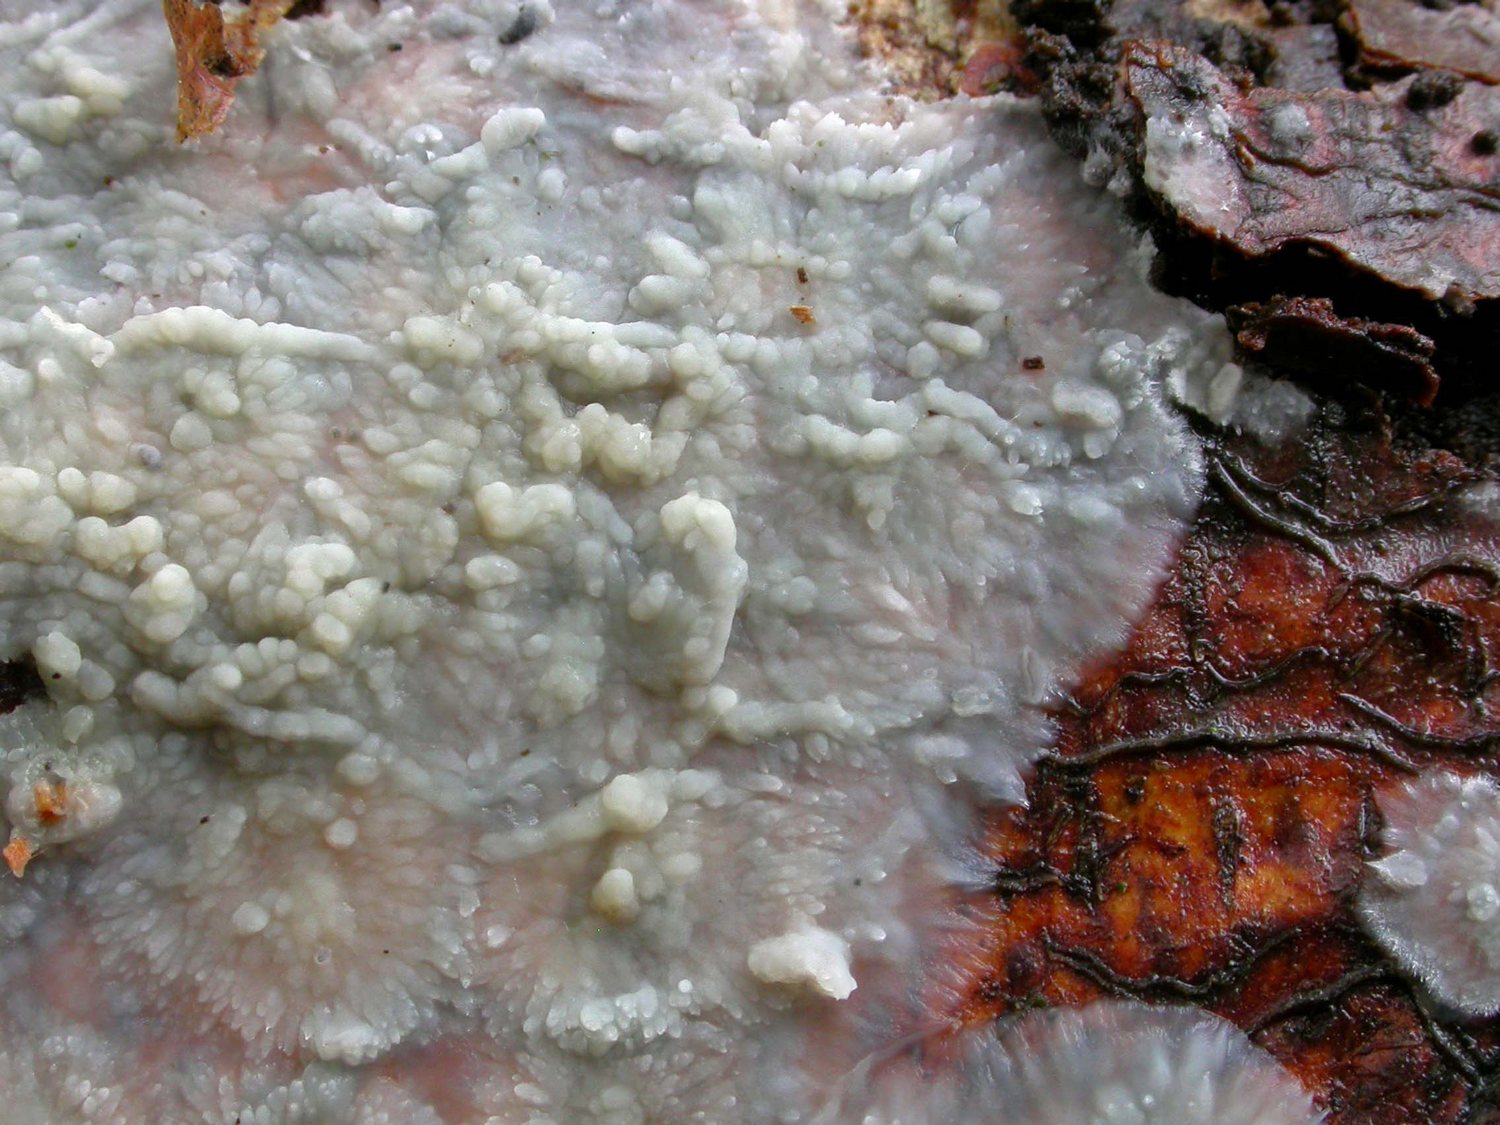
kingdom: Fungi
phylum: Basidiomycota
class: Agaricomycetes
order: Agaricales
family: Radulomycetaceae
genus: Radulomyces
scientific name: Radulomyces confluens
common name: glat naftalinskind
